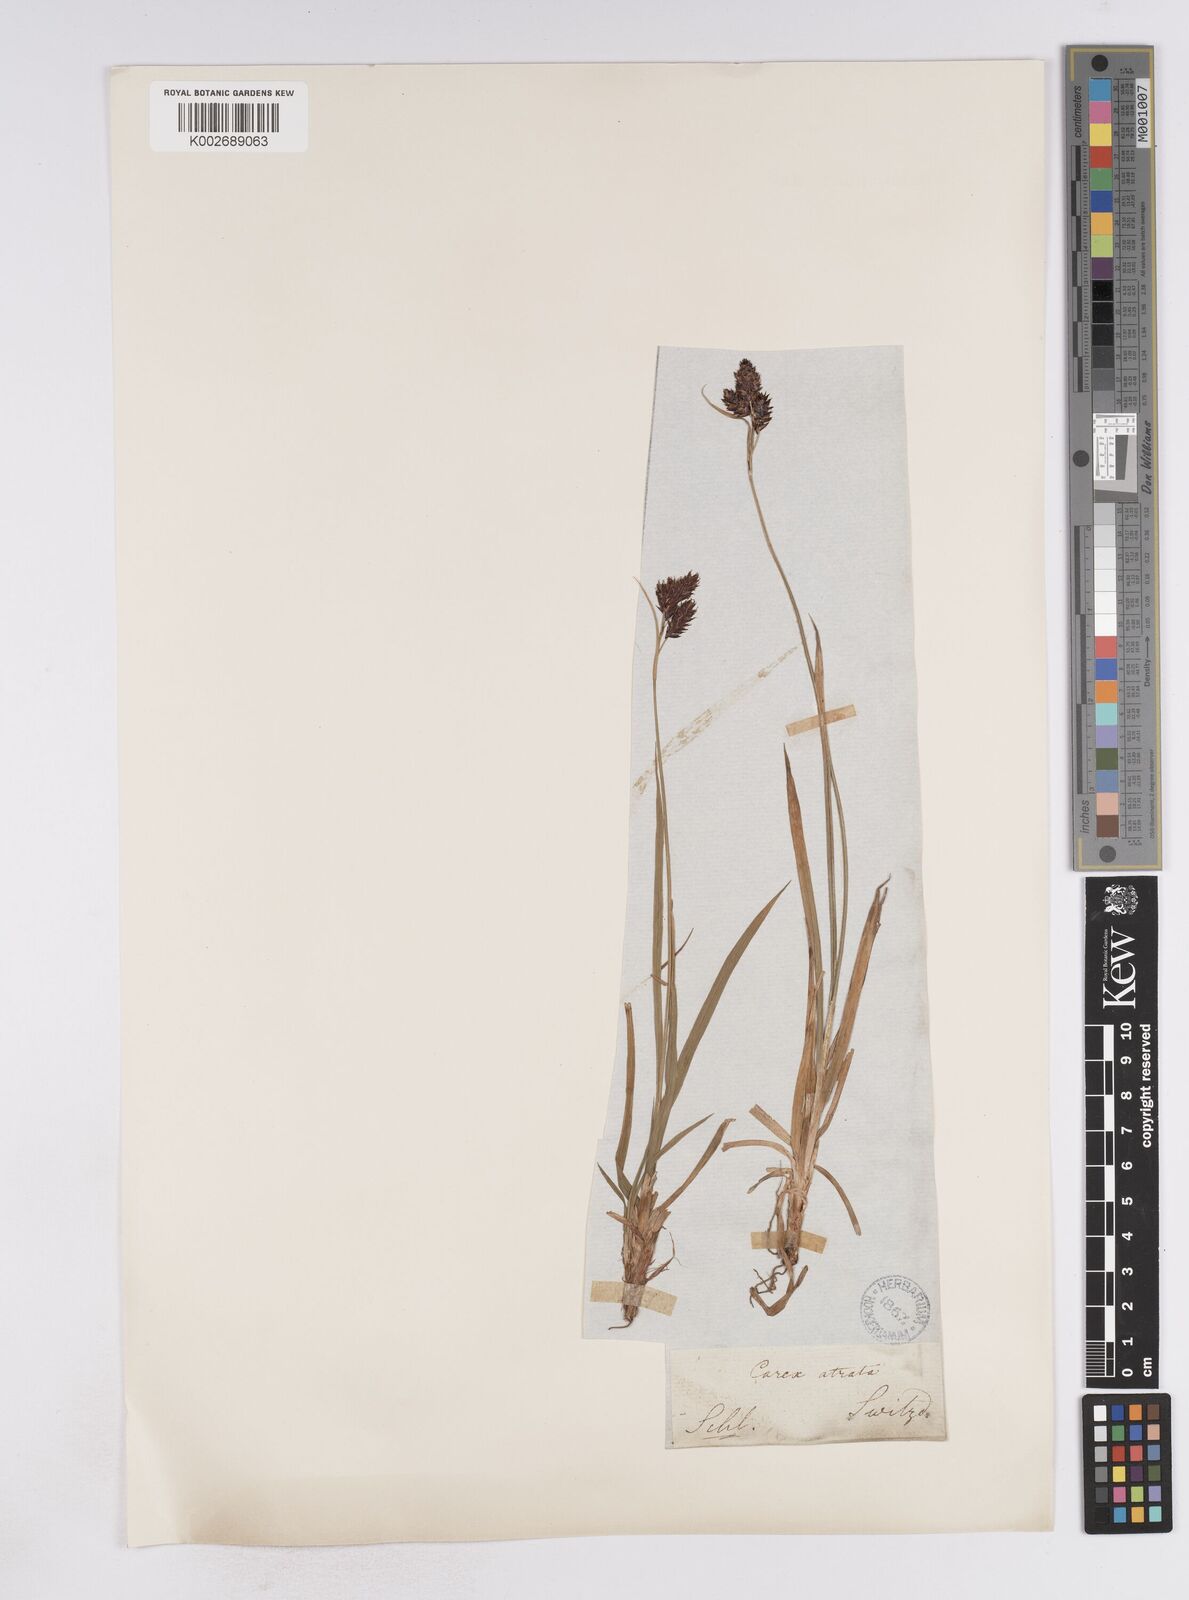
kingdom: Plantae
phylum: Tracheophyta
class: Liliopsida
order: Poales
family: Cyperaceae
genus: Carex
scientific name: Carex atrata
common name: Black alpine sedge
